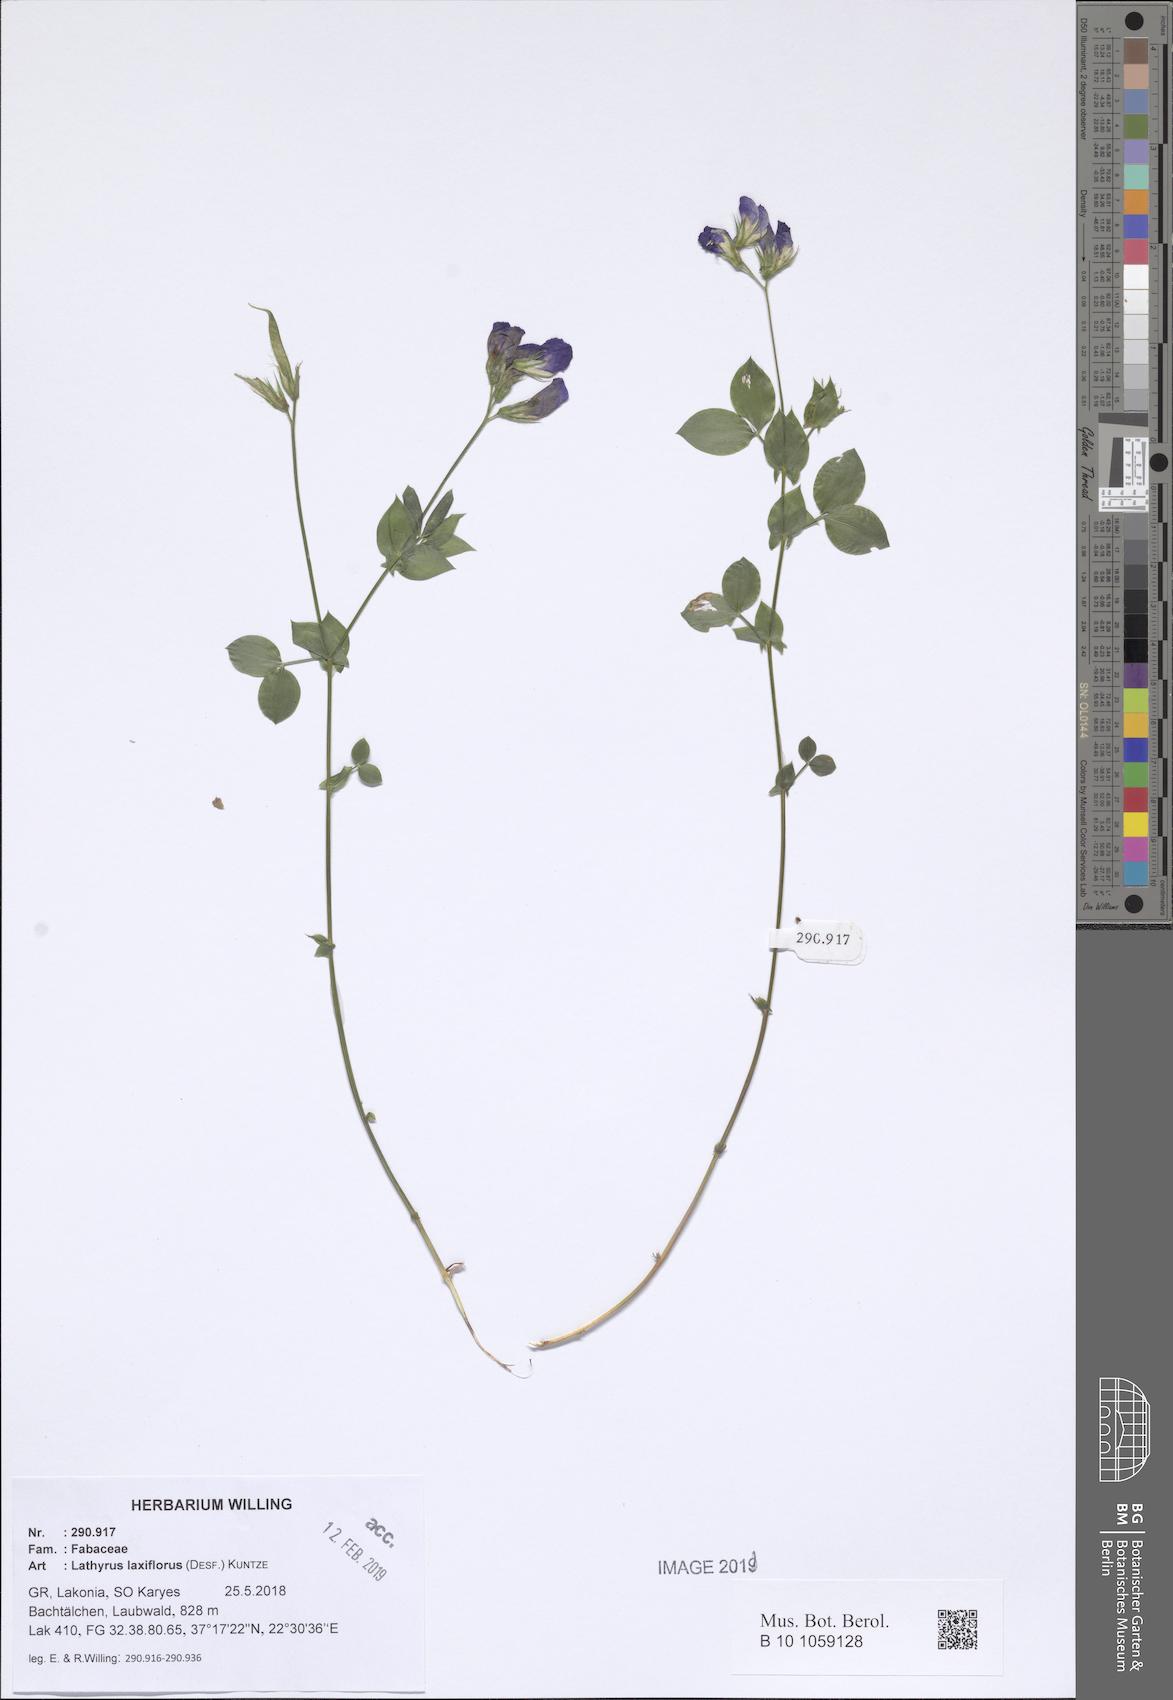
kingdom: Plantae
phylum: Tracheophyta
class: Magnoliopsida
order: Fabales
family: Fabaceae
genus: Lathyrus
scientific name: Lathyrus laxiflorus
